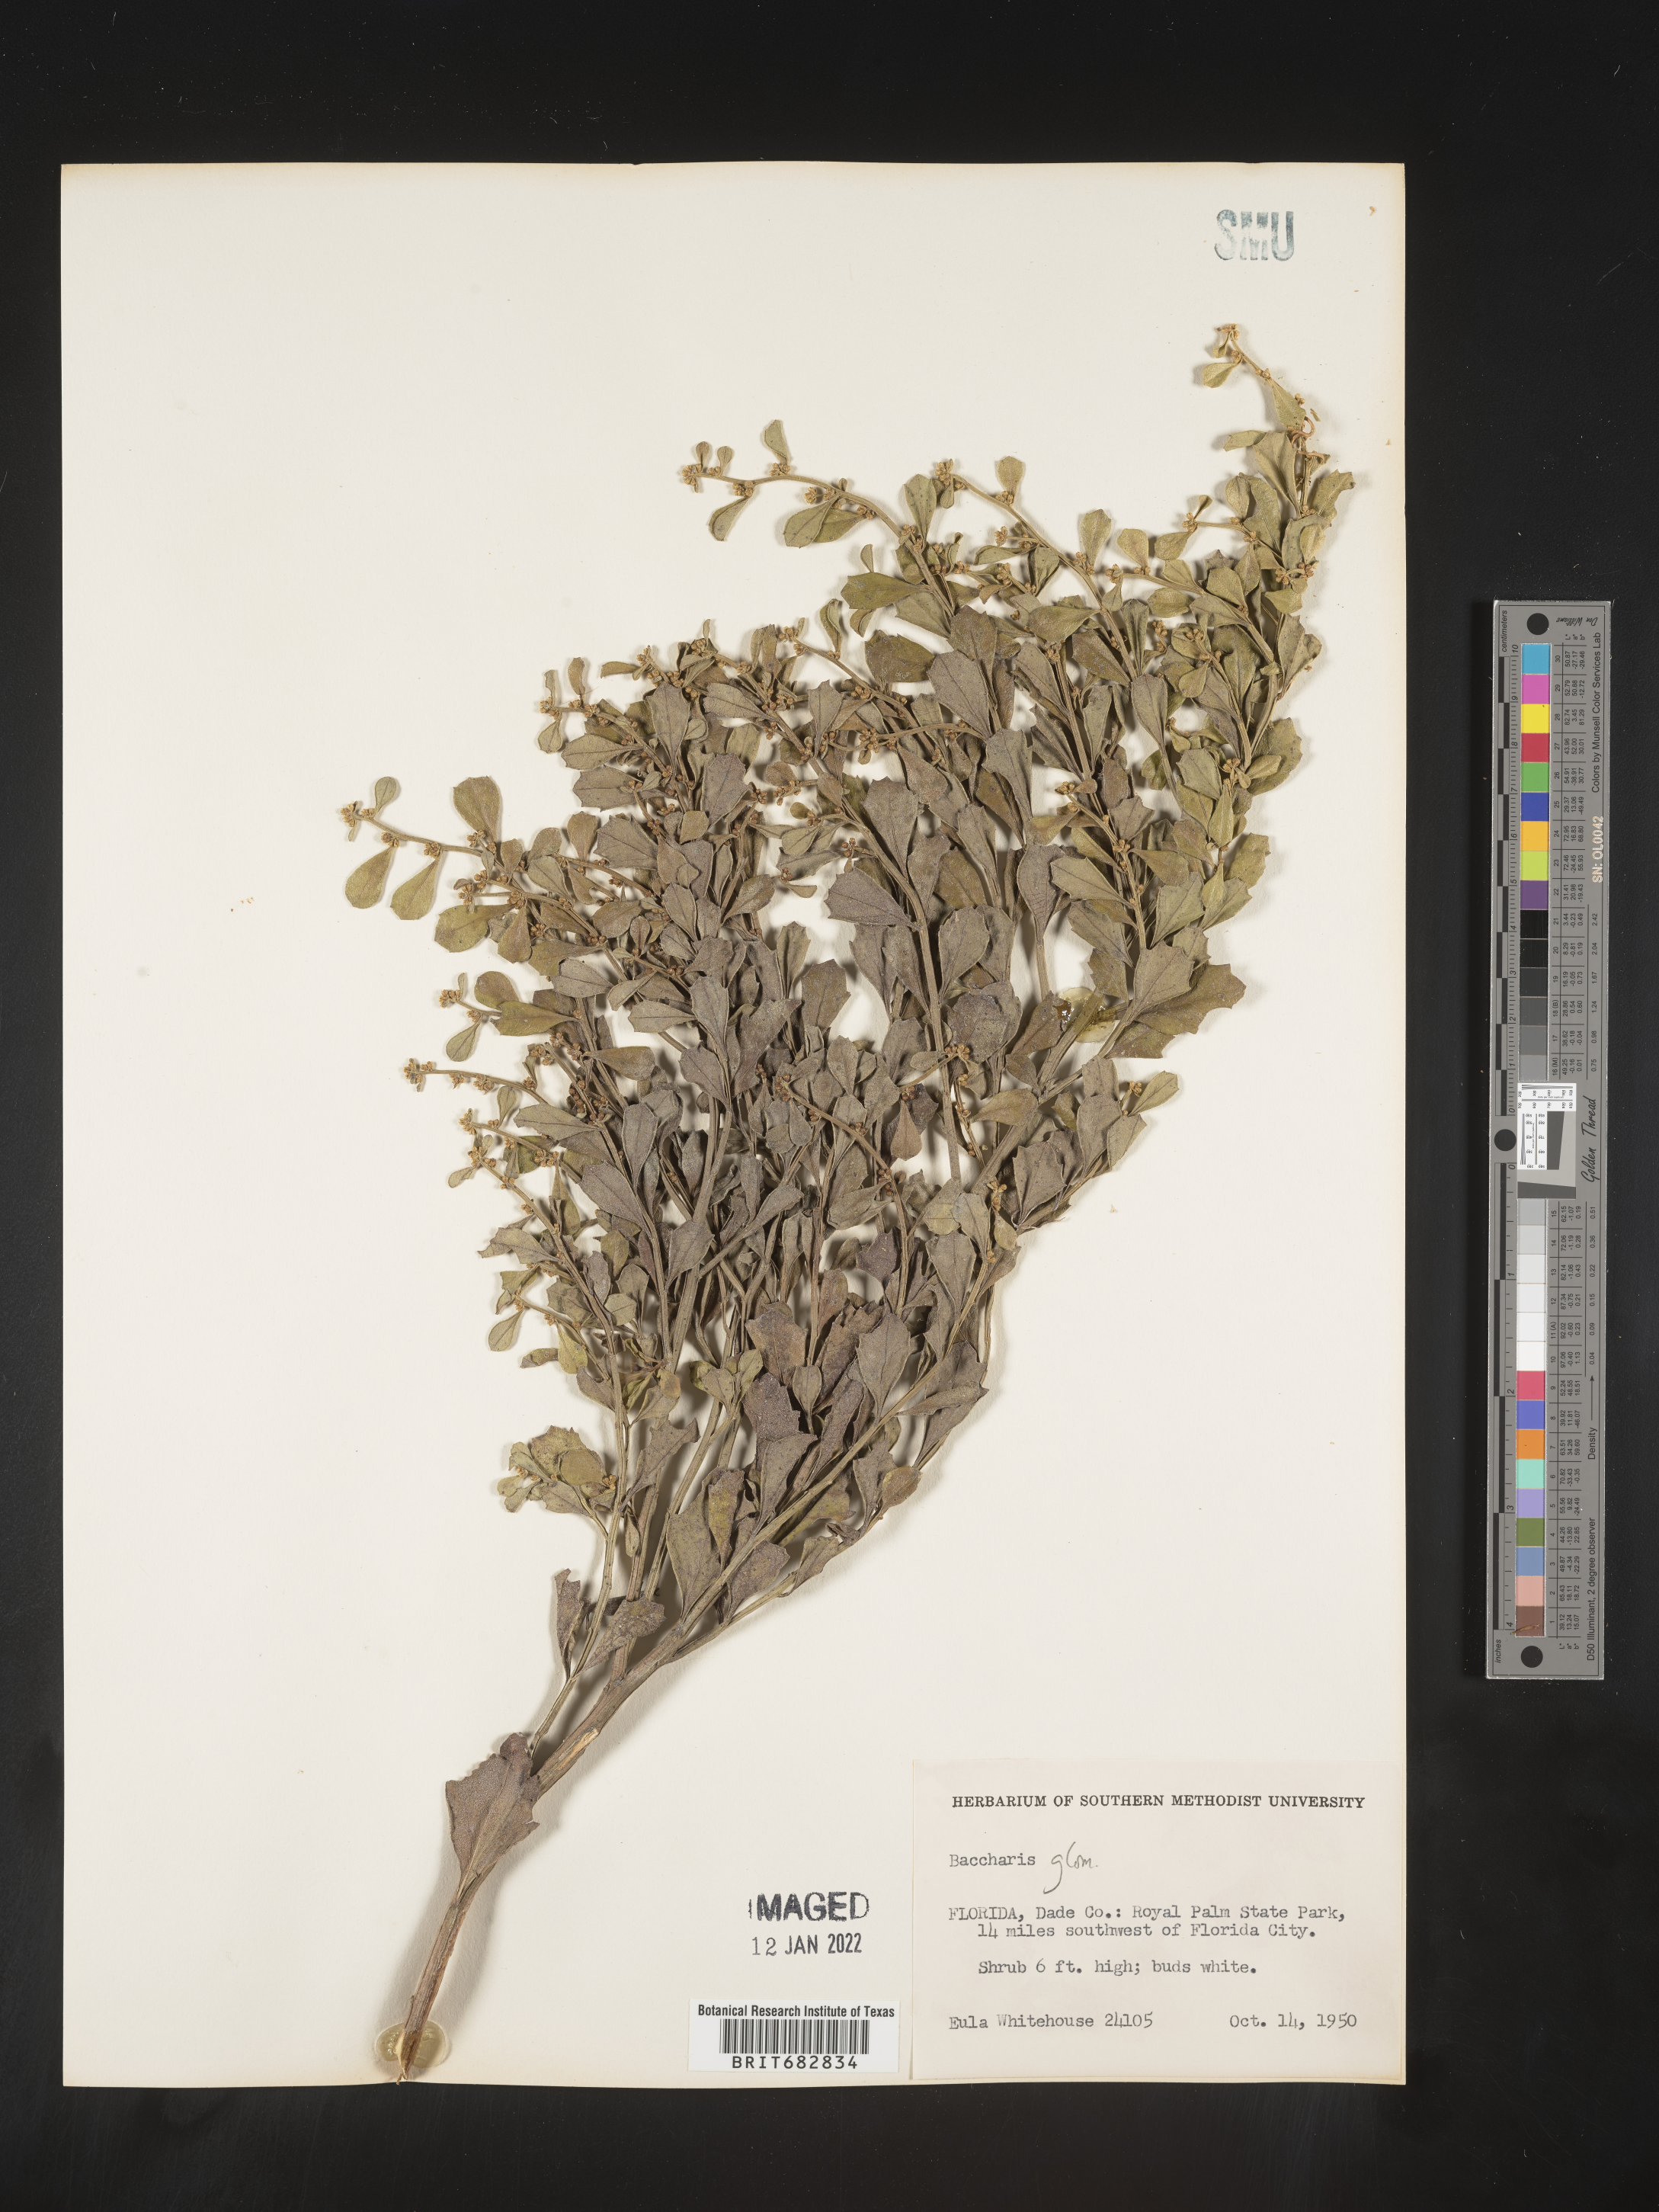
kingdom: Plantae
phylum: Tracheophyta
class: Magnoliopsida
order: Asterales
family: Asteraceae
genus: Baccharis
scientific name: Baccharis glomeruliflora
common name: Silverling groundsel bush
